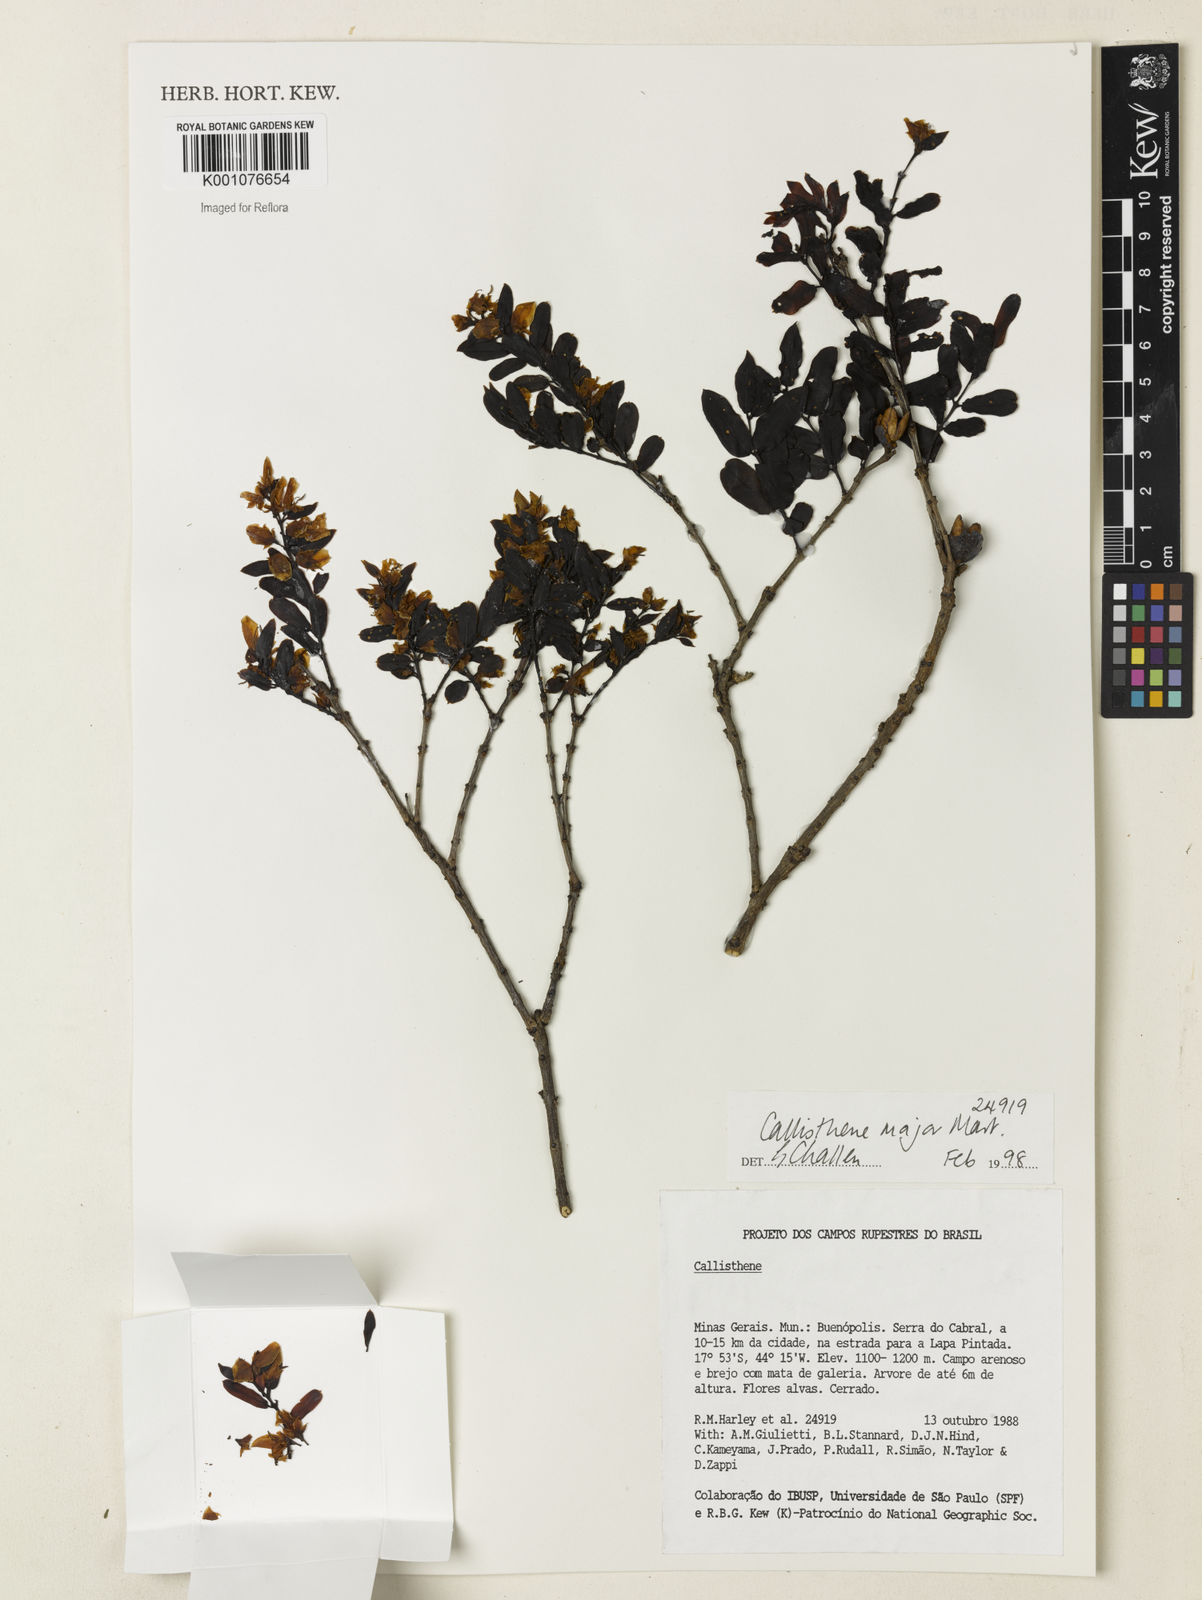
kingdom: Plantae
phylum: Tracheophyta
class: Magnoliopsida
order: Myrtales
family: Vochysiaceae
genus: Callisthene
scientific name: Callisthene major
